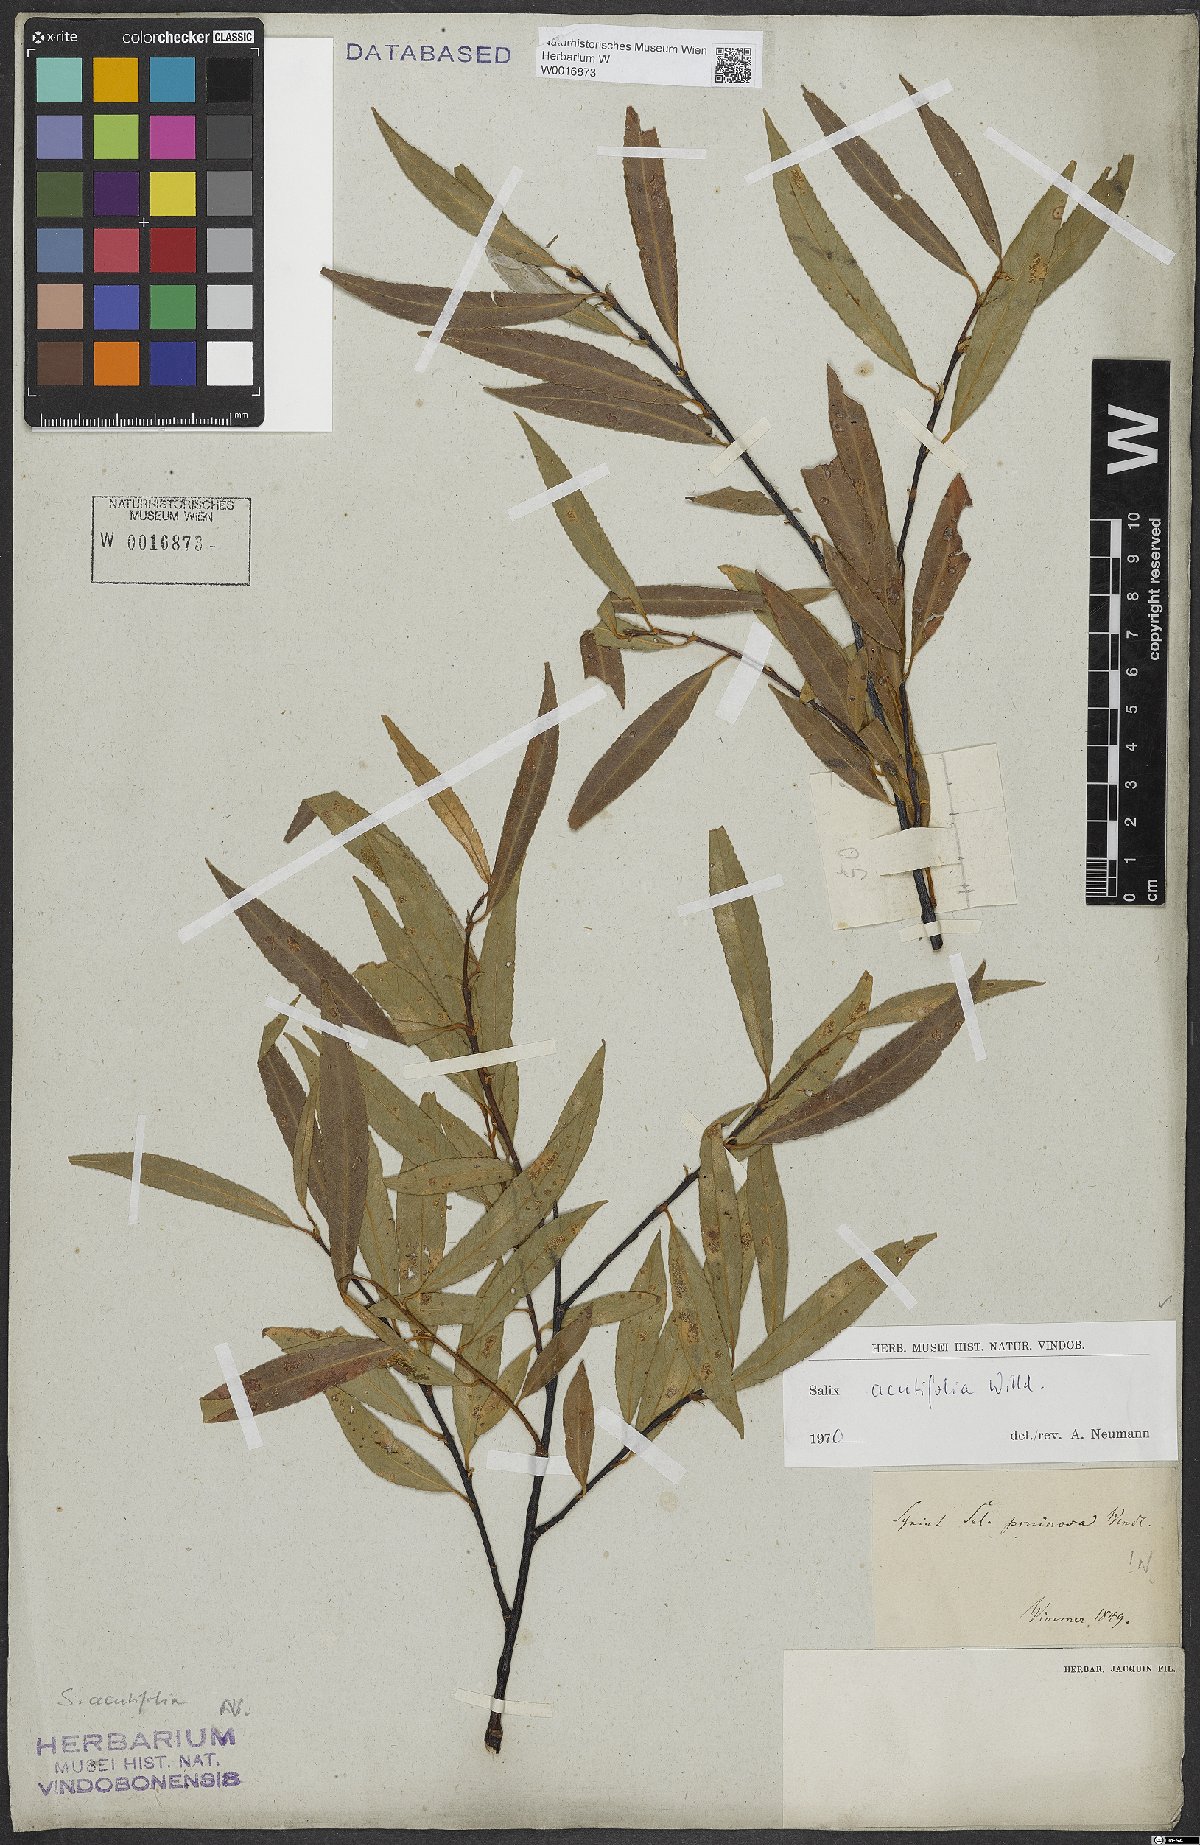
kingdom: Plantae
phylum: Tracheophyta
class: Magnoliopsida
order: Malpighiales
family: Salicaceae
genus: Salix
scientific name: Salix acutifolia
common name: Siberian violet-willow
